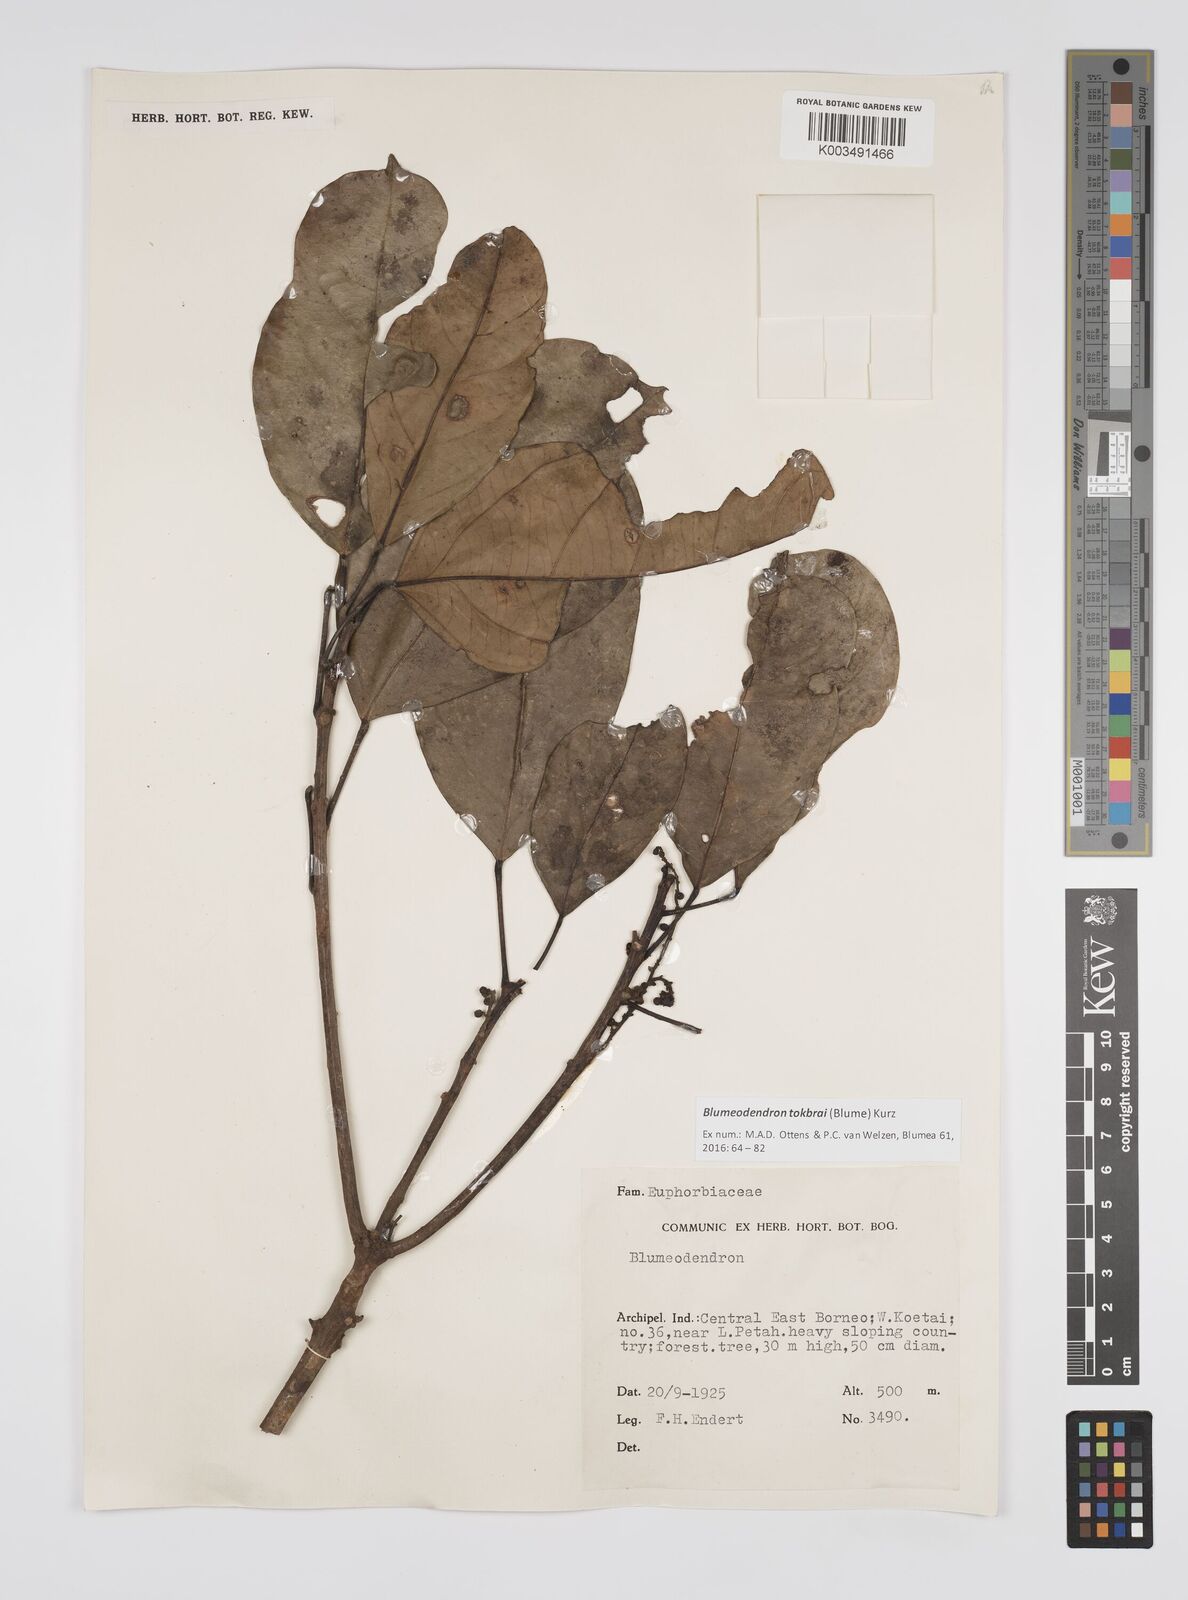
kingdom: Plantae
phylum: Tracheophyta
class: Magnoliopsida
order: Malpighiales
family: Euphorbiaceae
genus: Blumeodendron
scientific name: Blumeodendron tokbrai
